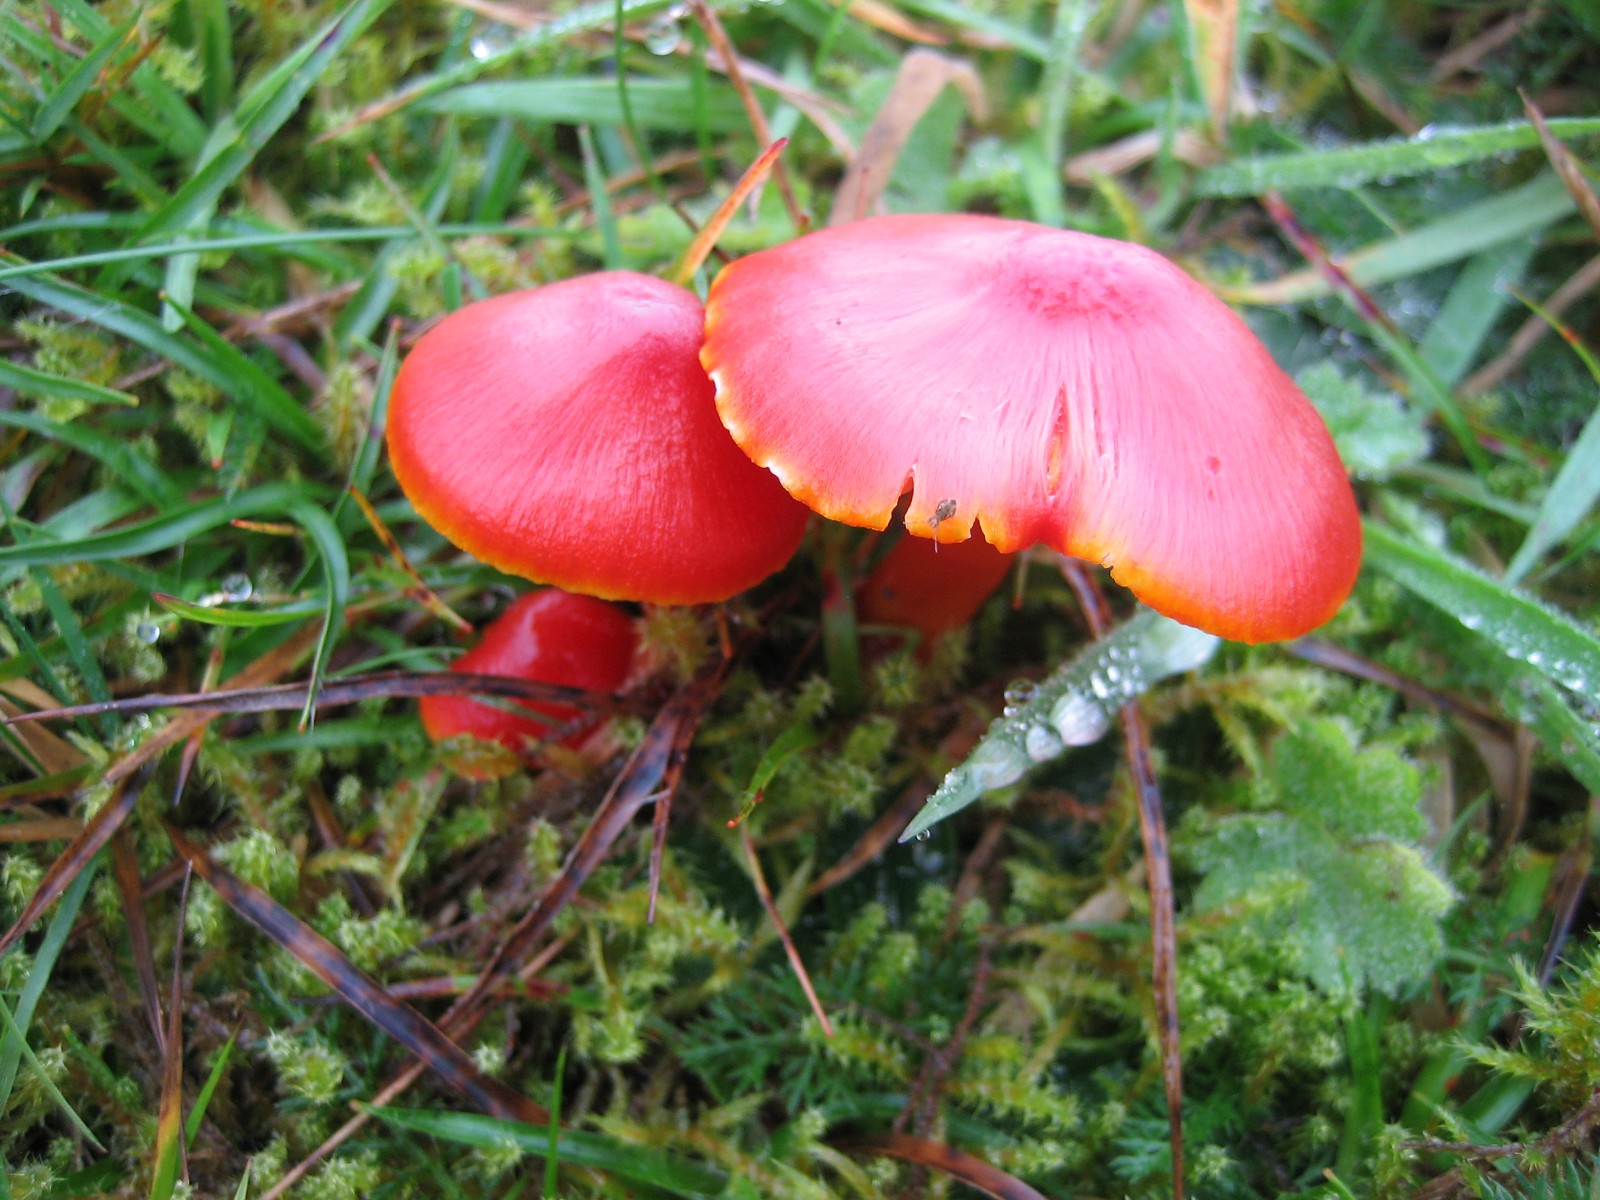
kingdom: Fungi
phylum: Basidiomycota
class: Agaricomycetes
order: Agaricales
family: Hygrophoraceae
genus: Hygrocybe
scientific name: Hygrocybe coccinea
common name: cinnober-vokshat
